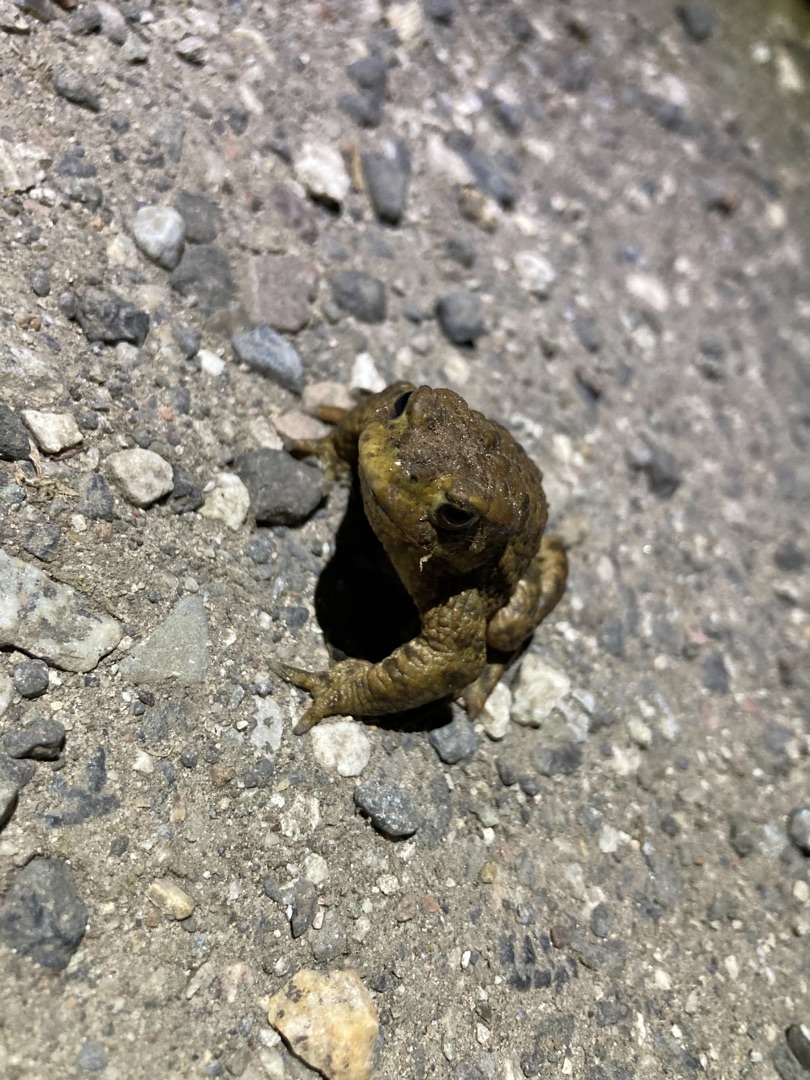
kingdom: Animalia
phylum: Chordata
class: Amphibia
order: Anura
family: Bufonidae
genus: Bufo
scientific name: Bufo bufo
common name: Skrubtudse
